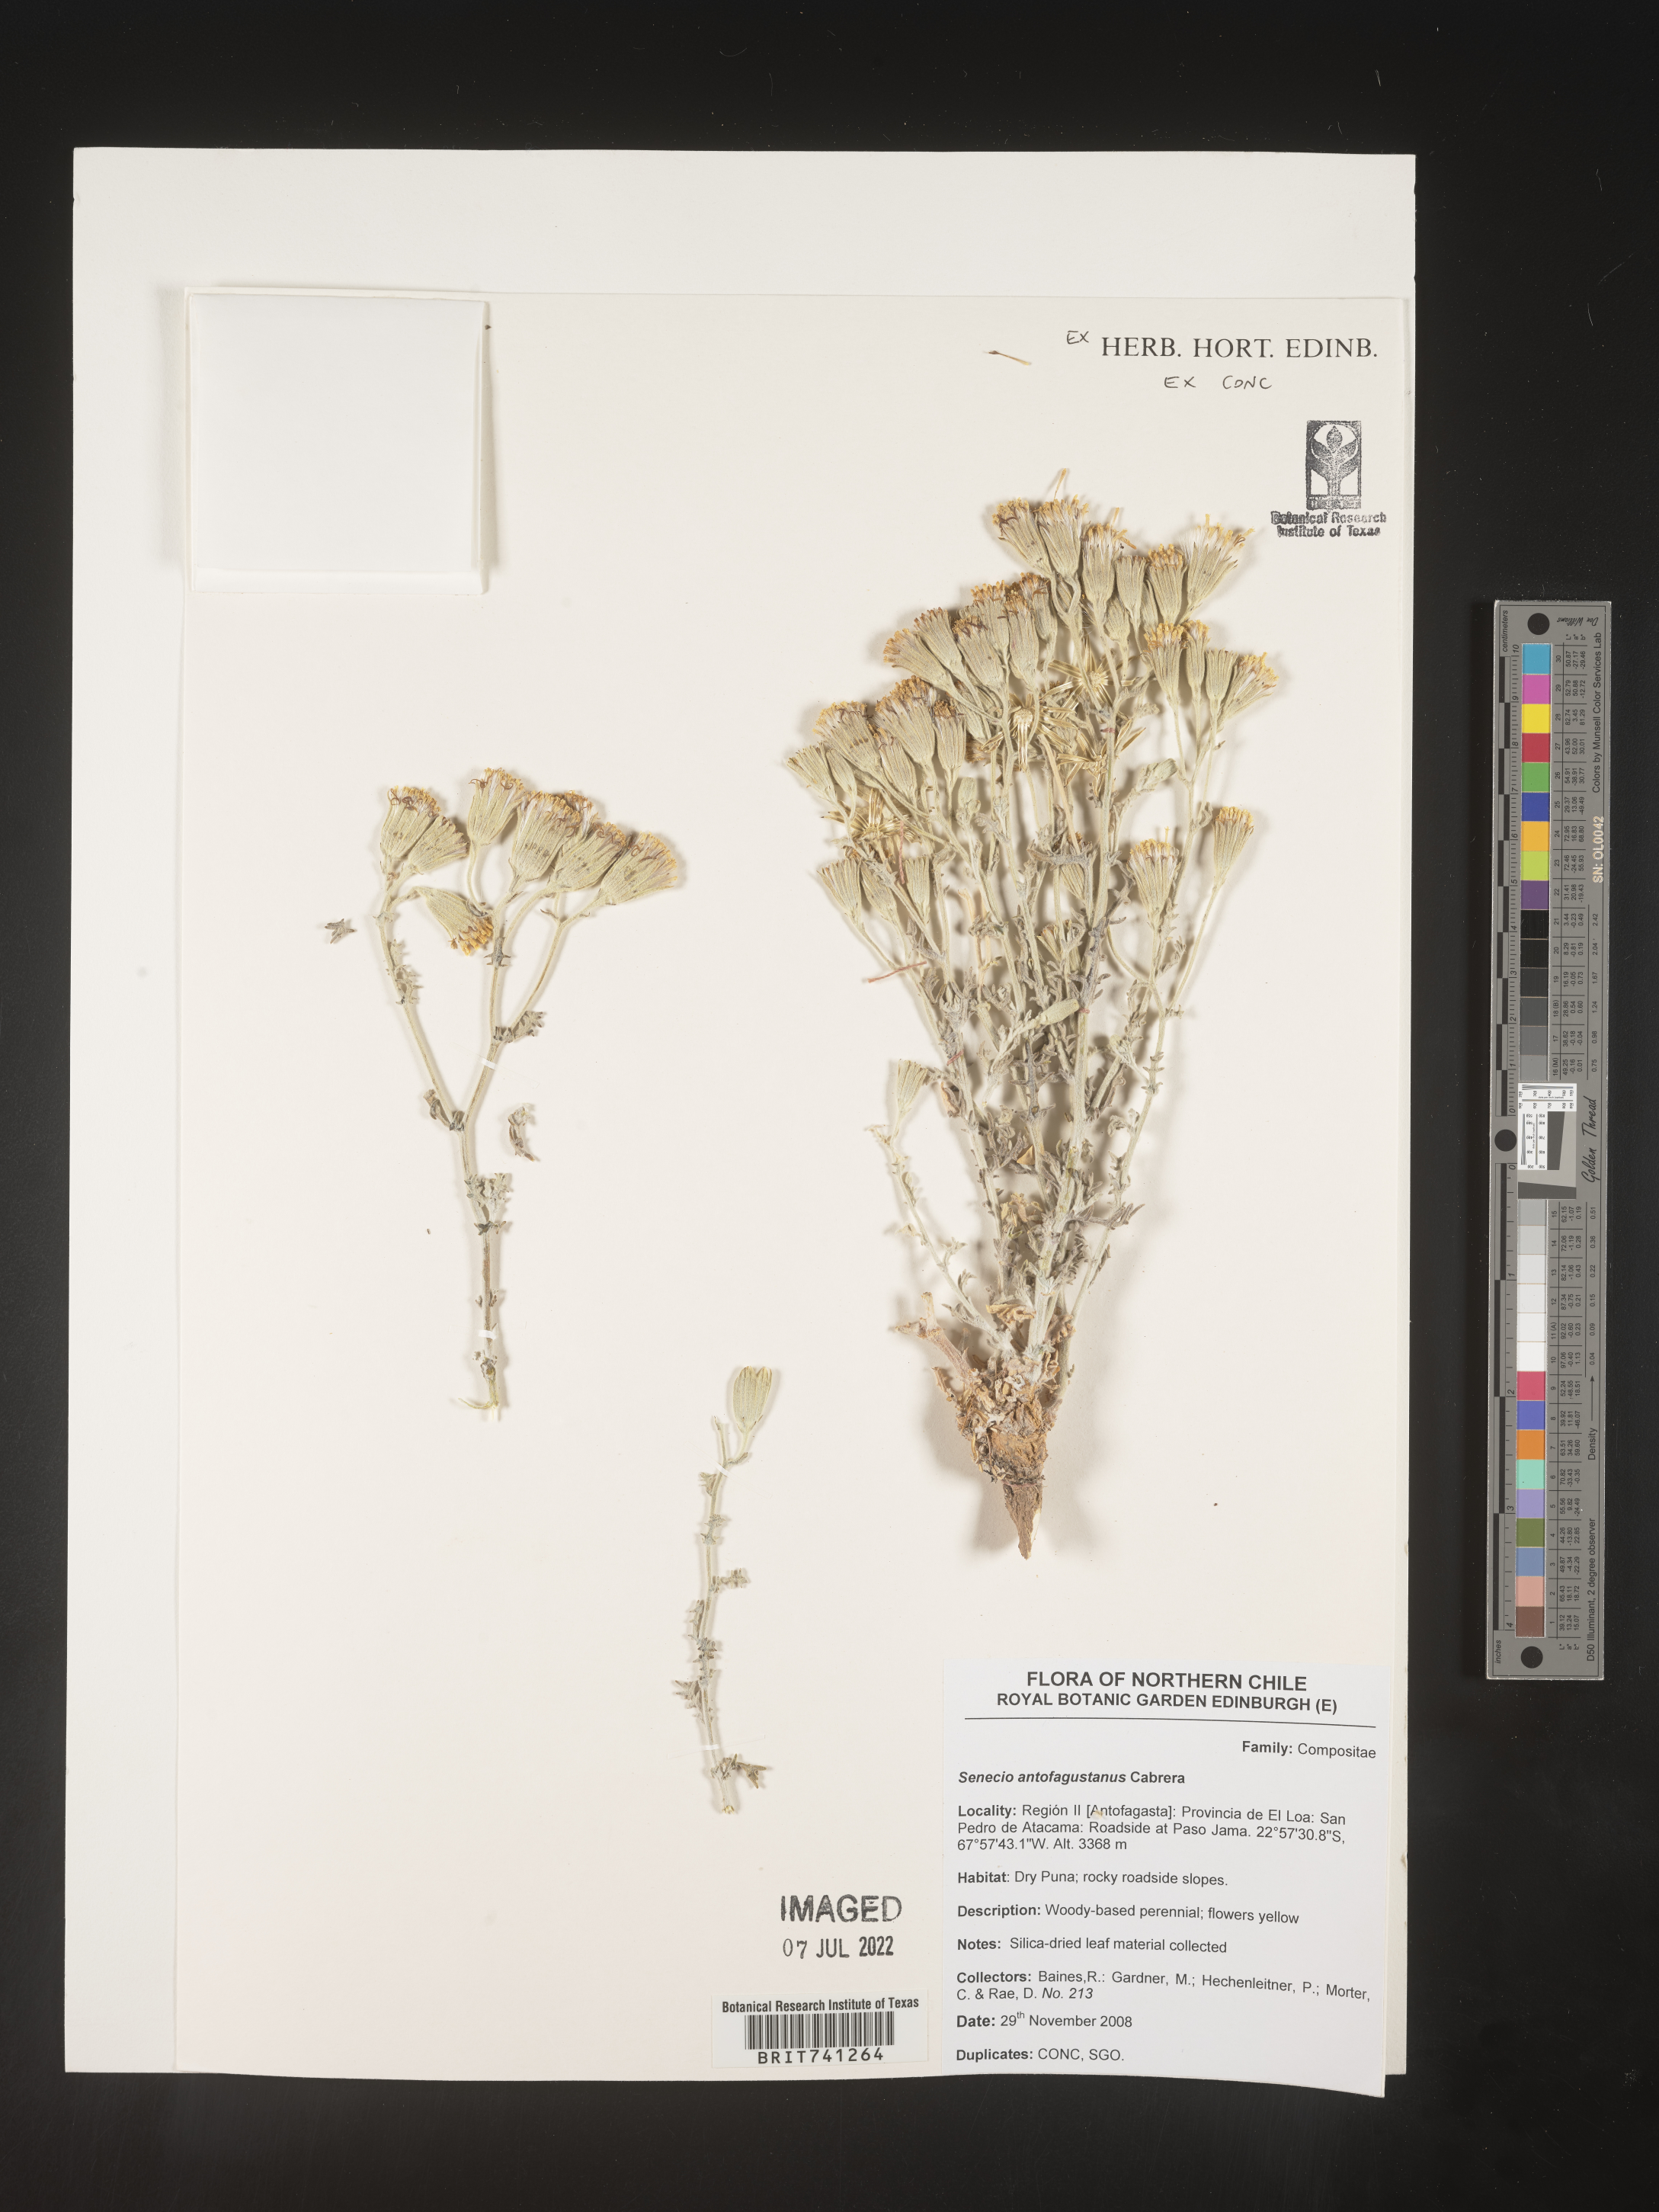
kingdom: Plantae
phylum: Tracheophyta
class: Magnoliopsida
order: Asterales
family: Asteraceae
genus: Senecio
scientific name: Senecio
